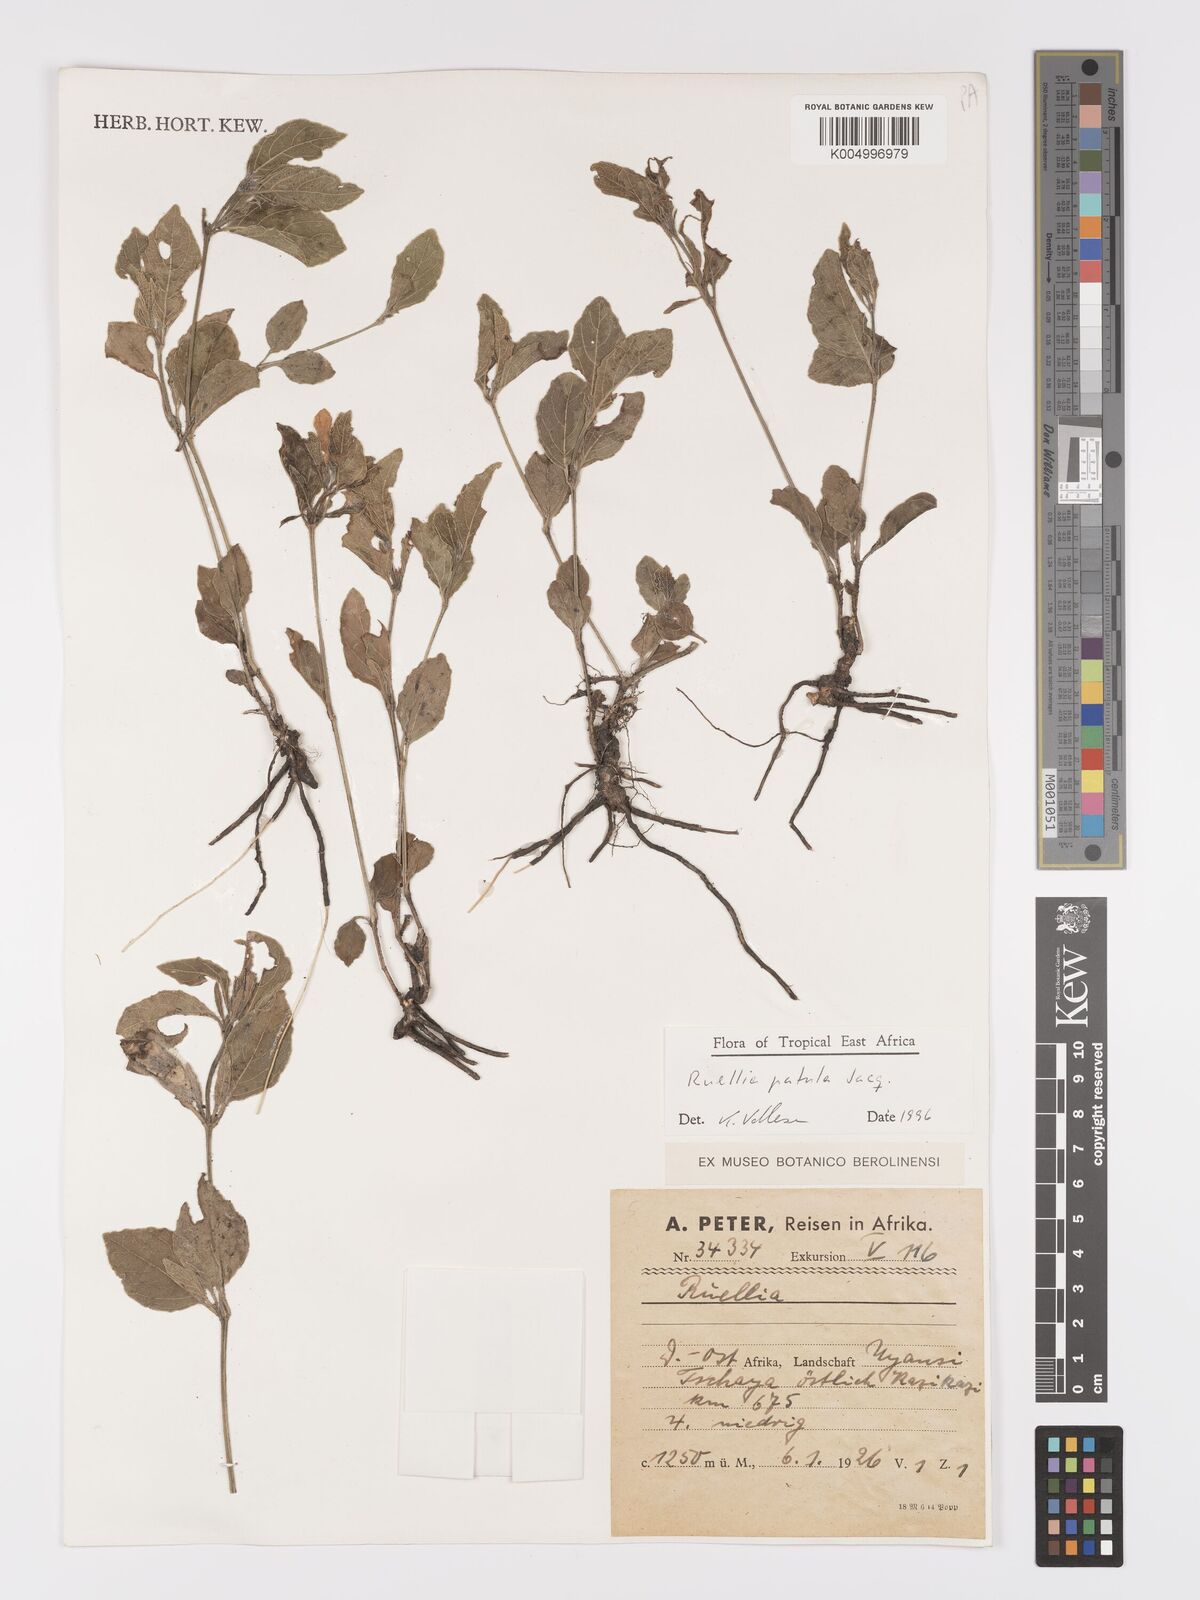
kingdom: Plantae
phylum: Tracheophyta
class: Magnoliopsida
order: Lamiales
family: Acanthaceae
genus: Ruellia
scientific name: Ruellia patula
